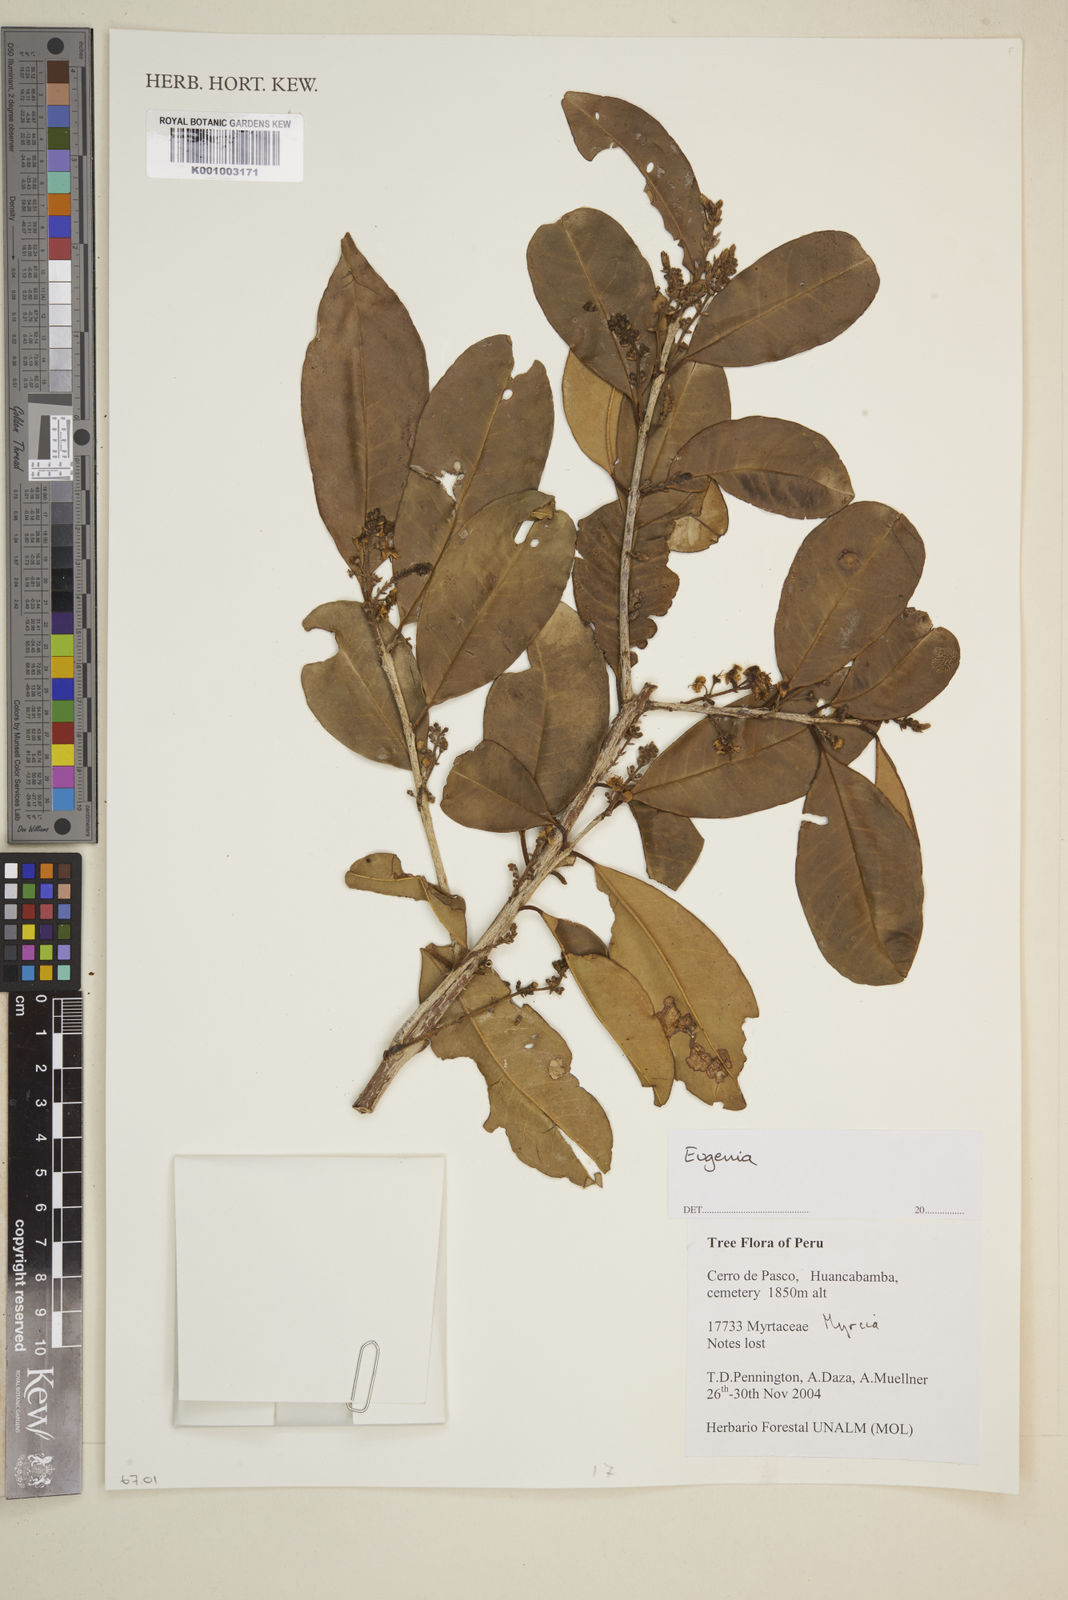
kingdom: Plantae
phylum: Tracheophyta
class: Magnoliopsida
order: Myrtales
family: Myrtaceae
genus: Eugenia
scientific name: Eugenia
